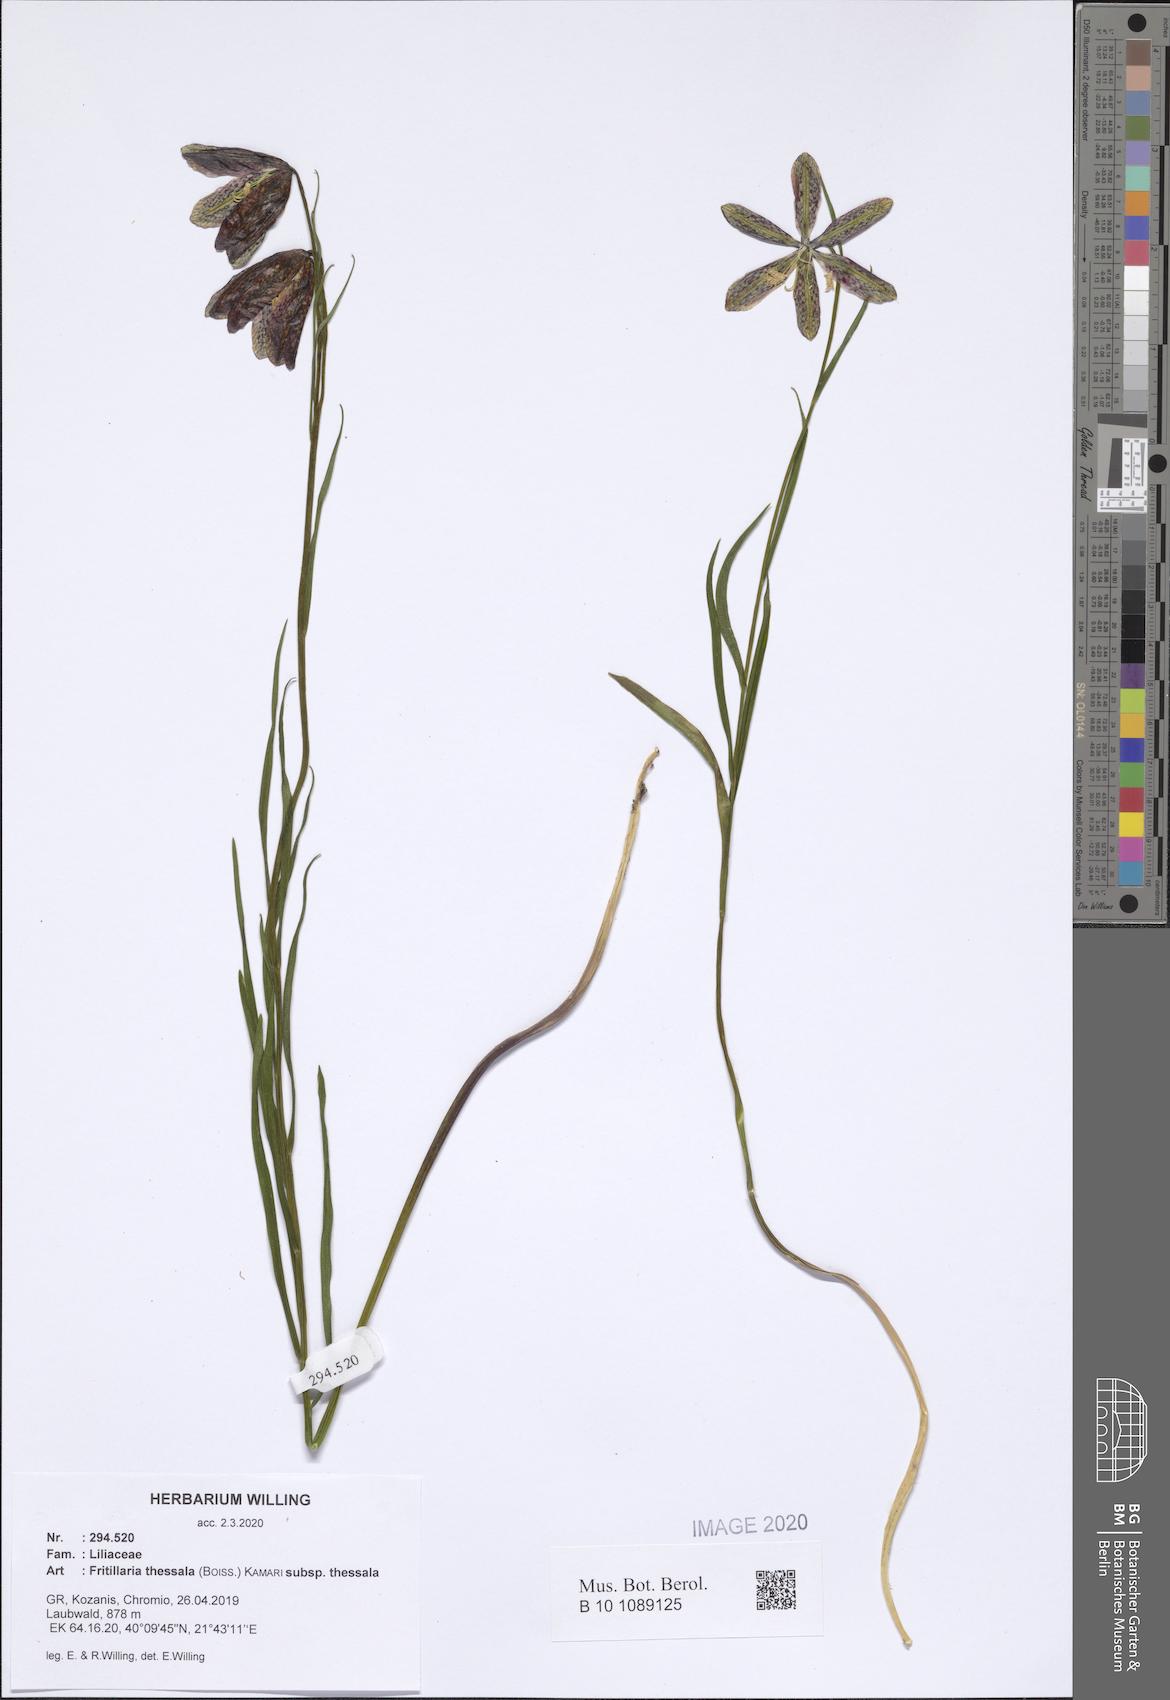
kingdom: Plantae
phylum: Tracheophyta
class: Liliopsida
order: Liliales
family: Liliaceae
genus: Fritillaria
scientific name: Fritillaria graeca
